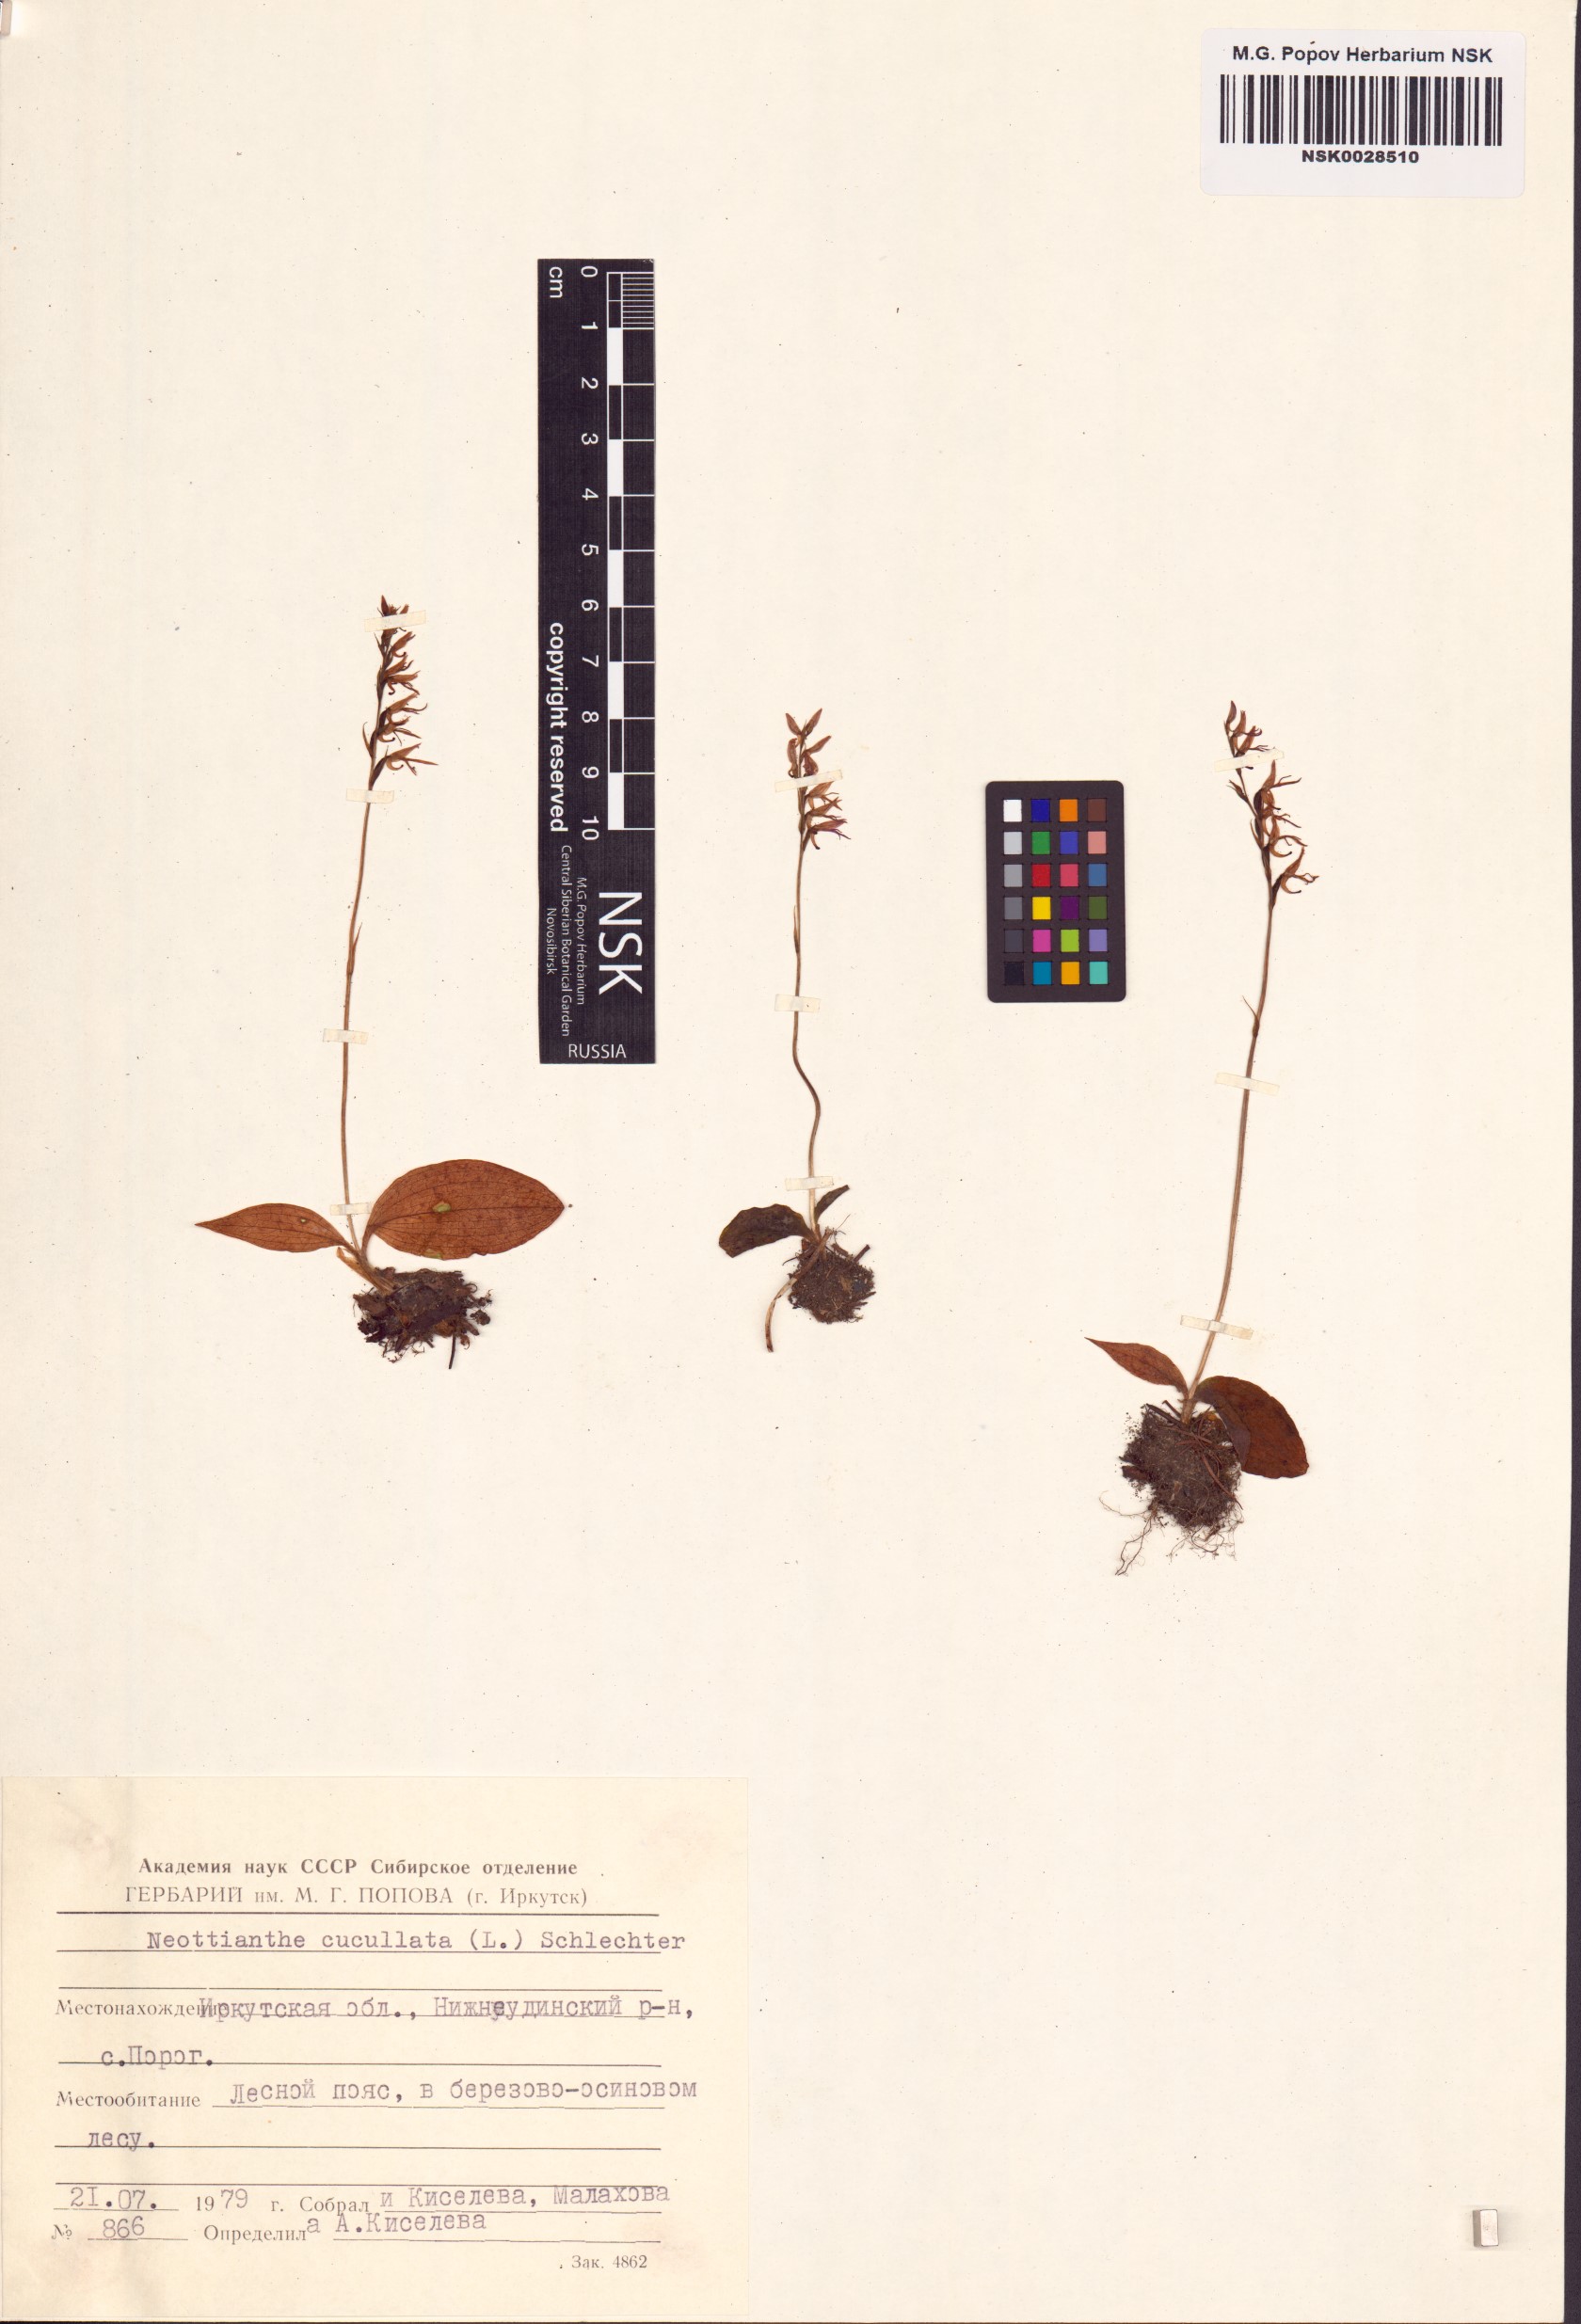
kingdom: Plantae
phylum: Tracheophyta
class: Liliopsida
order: Asparagales
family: Orchidaceae
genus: Hemipilia
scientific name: Hemipilia cucullata
